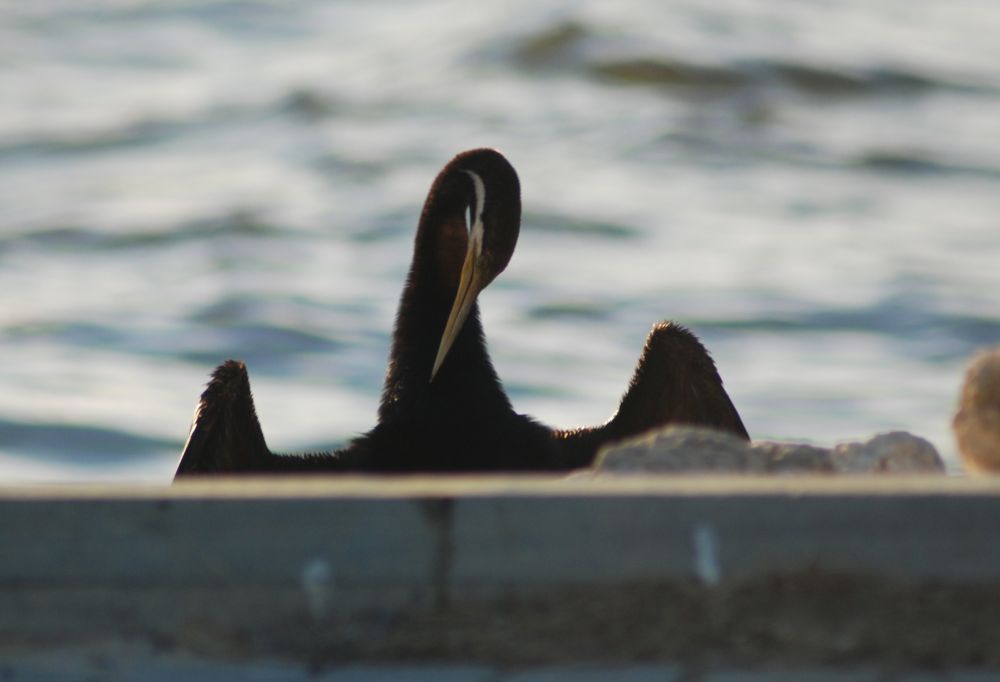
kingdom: Animalia
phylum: Chordata
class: Aves
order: Suliformes
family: Anhingidae
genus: Anhinga
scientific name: Anhinga novaehollandiae
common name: Australasian darter
